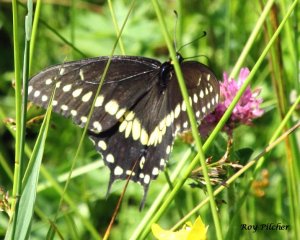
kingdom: Animalia
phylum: Arthropoda
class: Insecta
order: Lepidoptera
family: Papilionidae
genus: Papilio
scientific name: Papilio polyxenes
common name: Black Swallowtail
